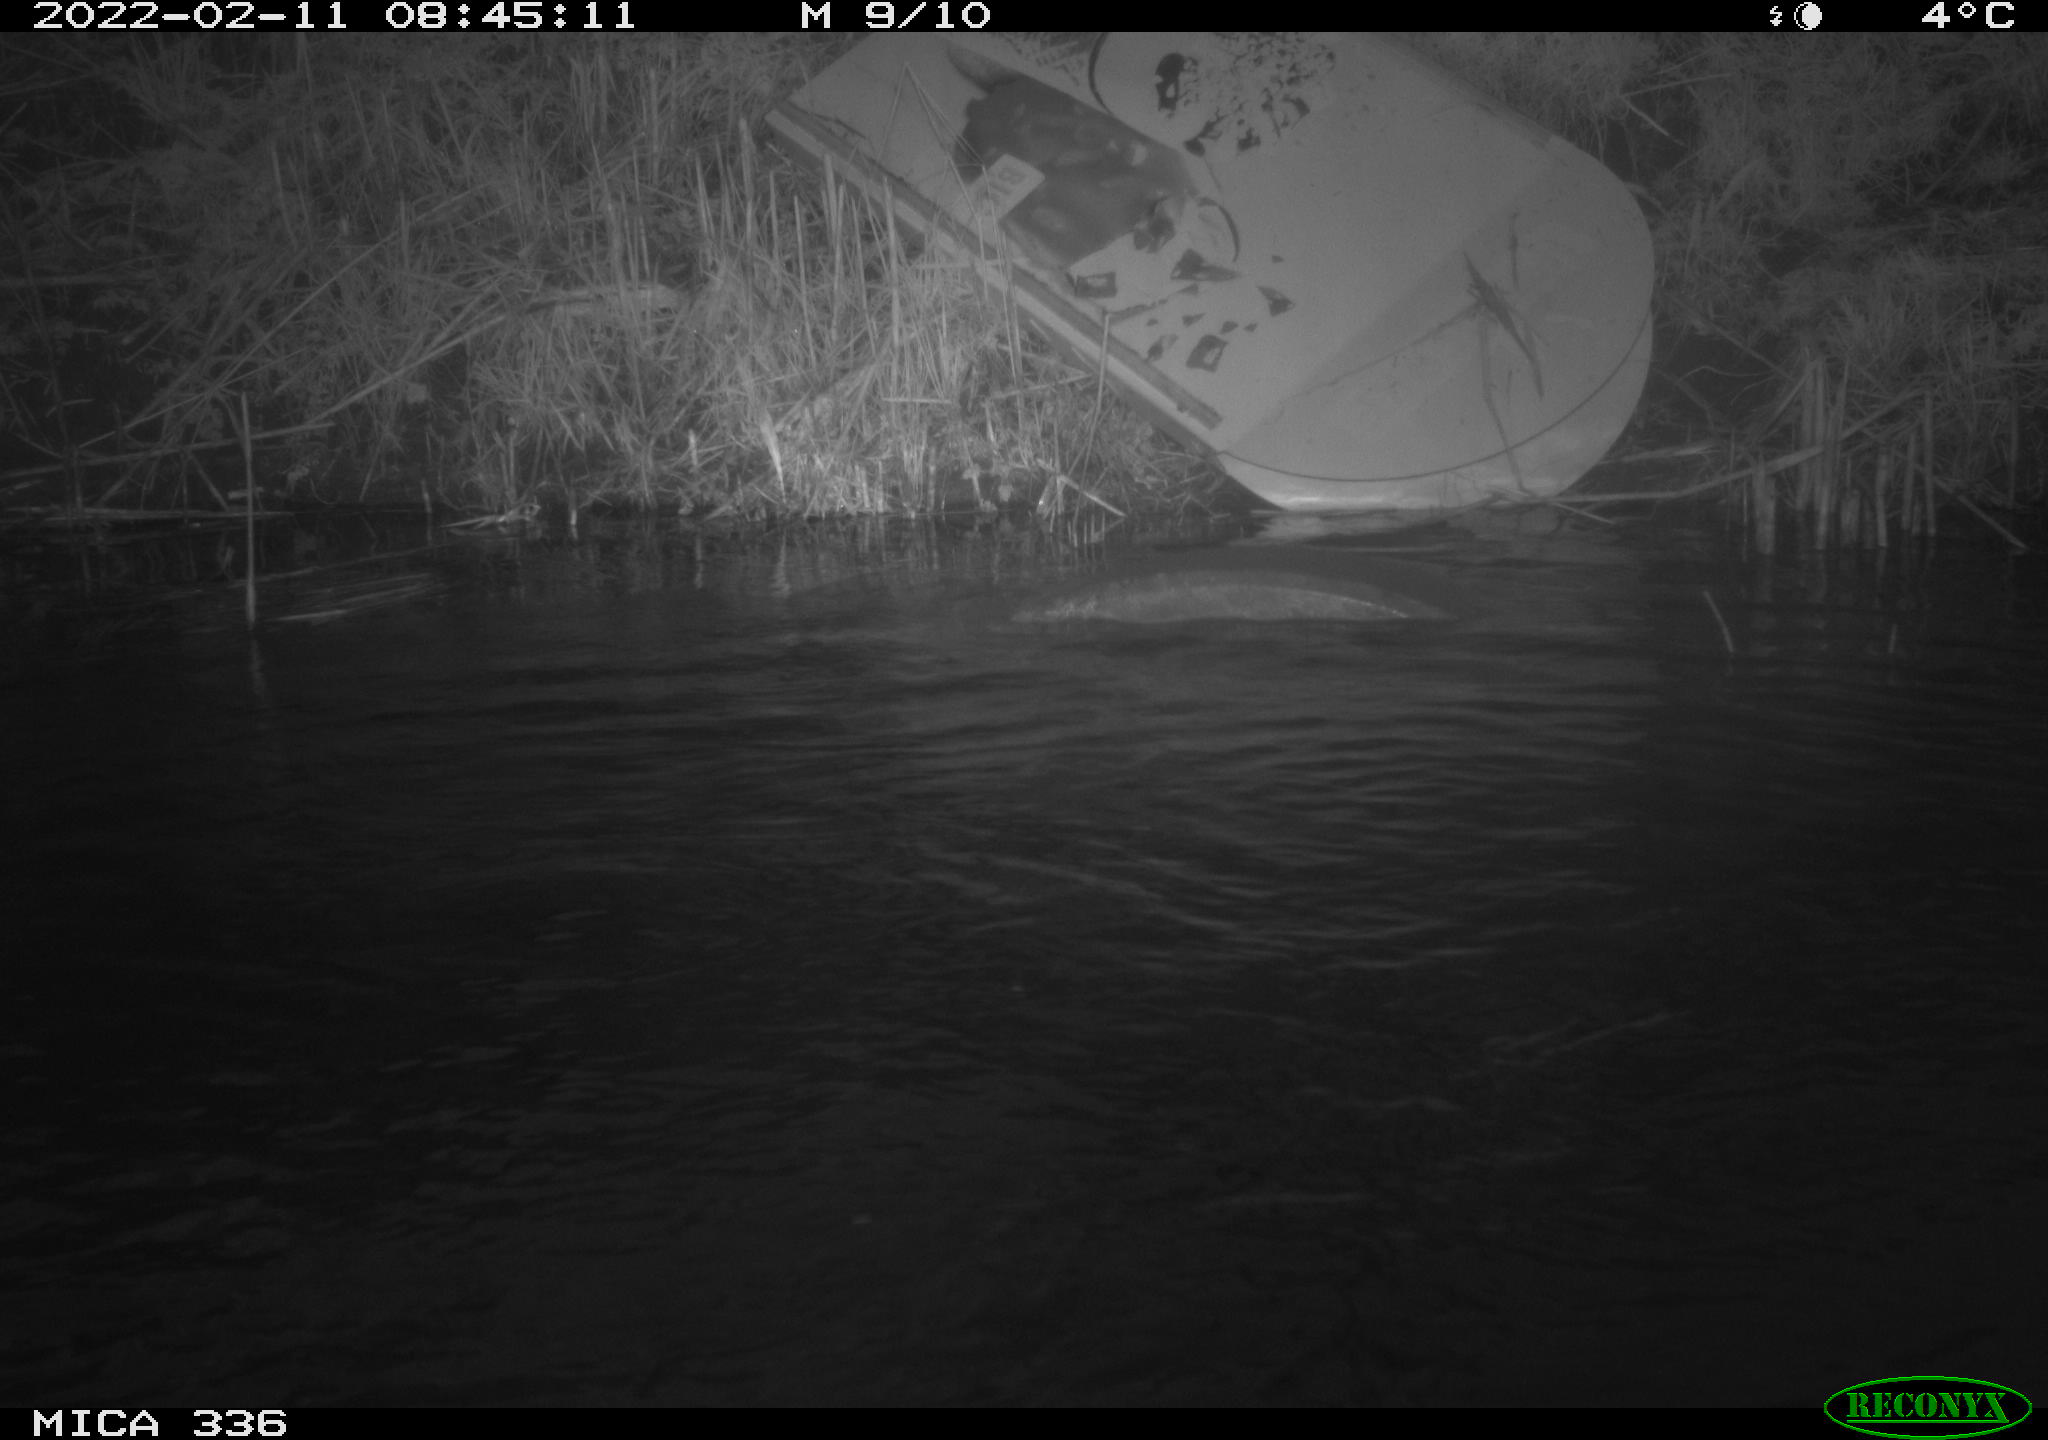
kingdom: Animalia
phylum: Chordata
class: Aves
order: Suliformes
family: Phalacrocoracidae
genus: Phalacrocorax
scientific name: Phalacrocorax carbo
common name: Great cormorant
